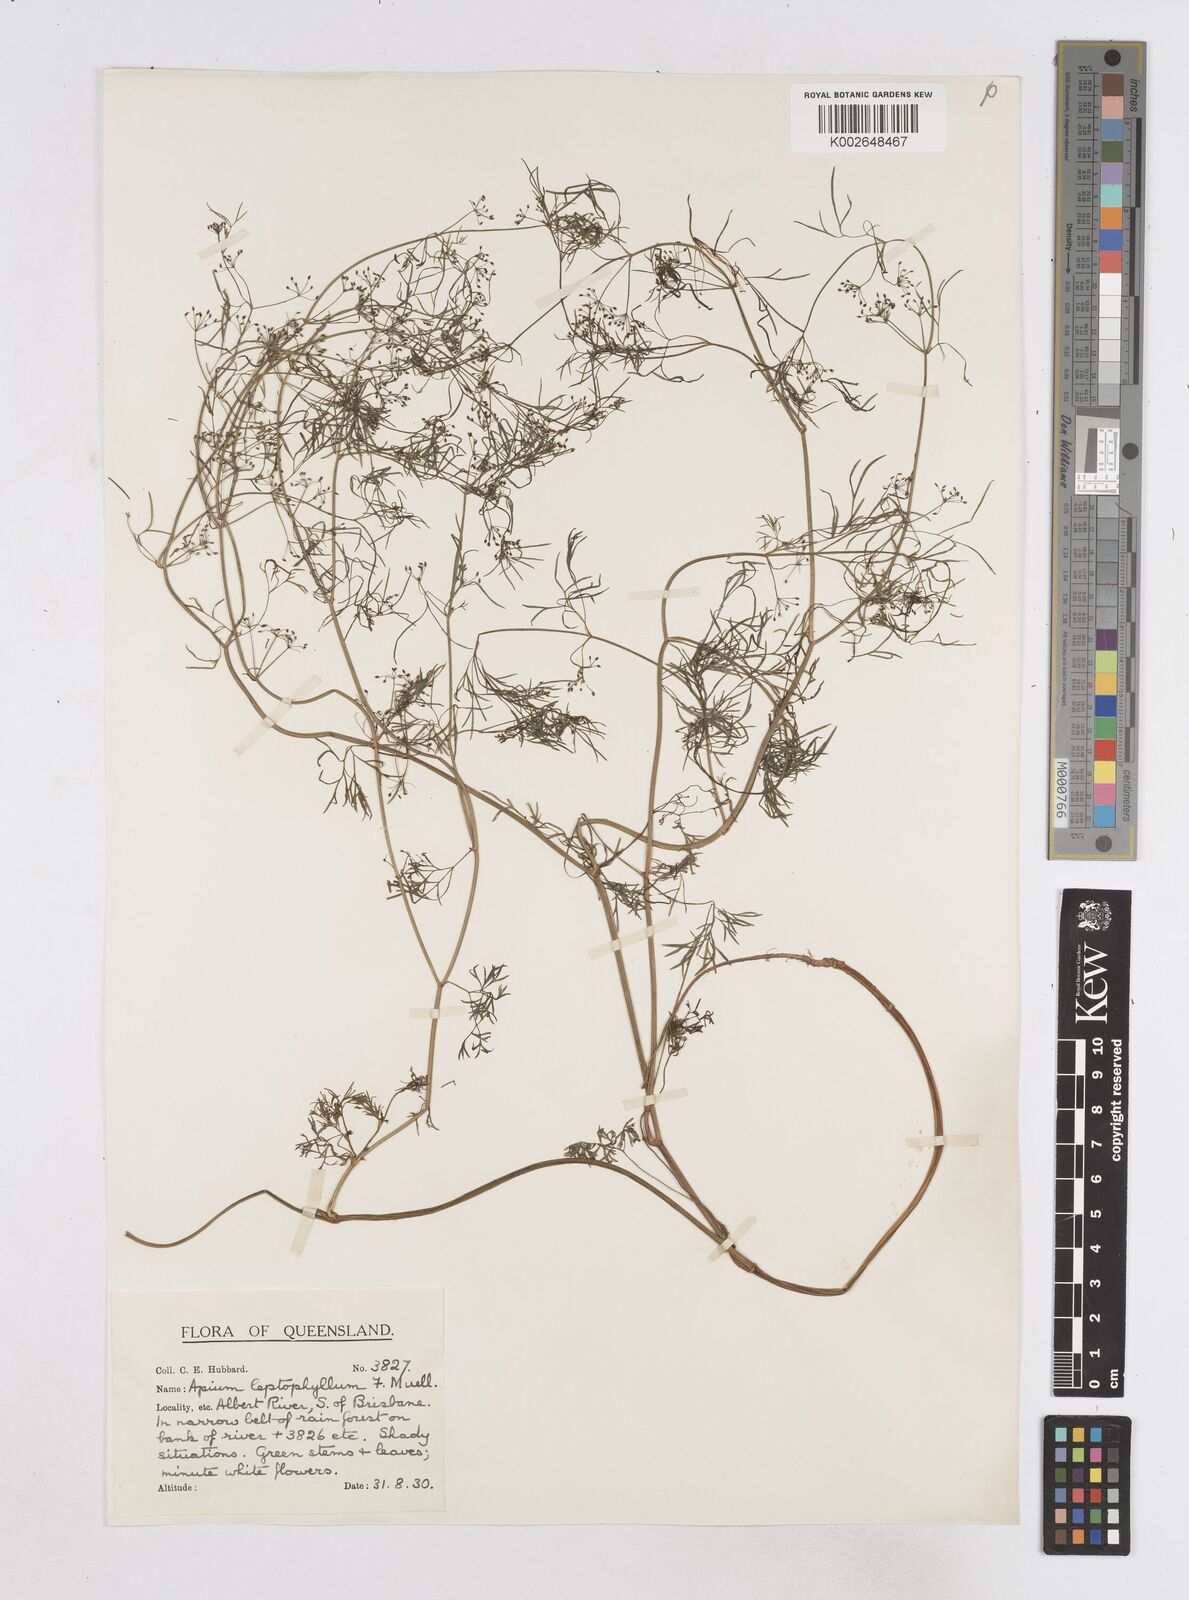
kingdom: Plantae
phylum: Tracheophyta
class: Magnoliopsida
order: Apiales
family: Apiaceae
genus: Cyclospermum
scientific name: Cyclospermum leptophyllum
